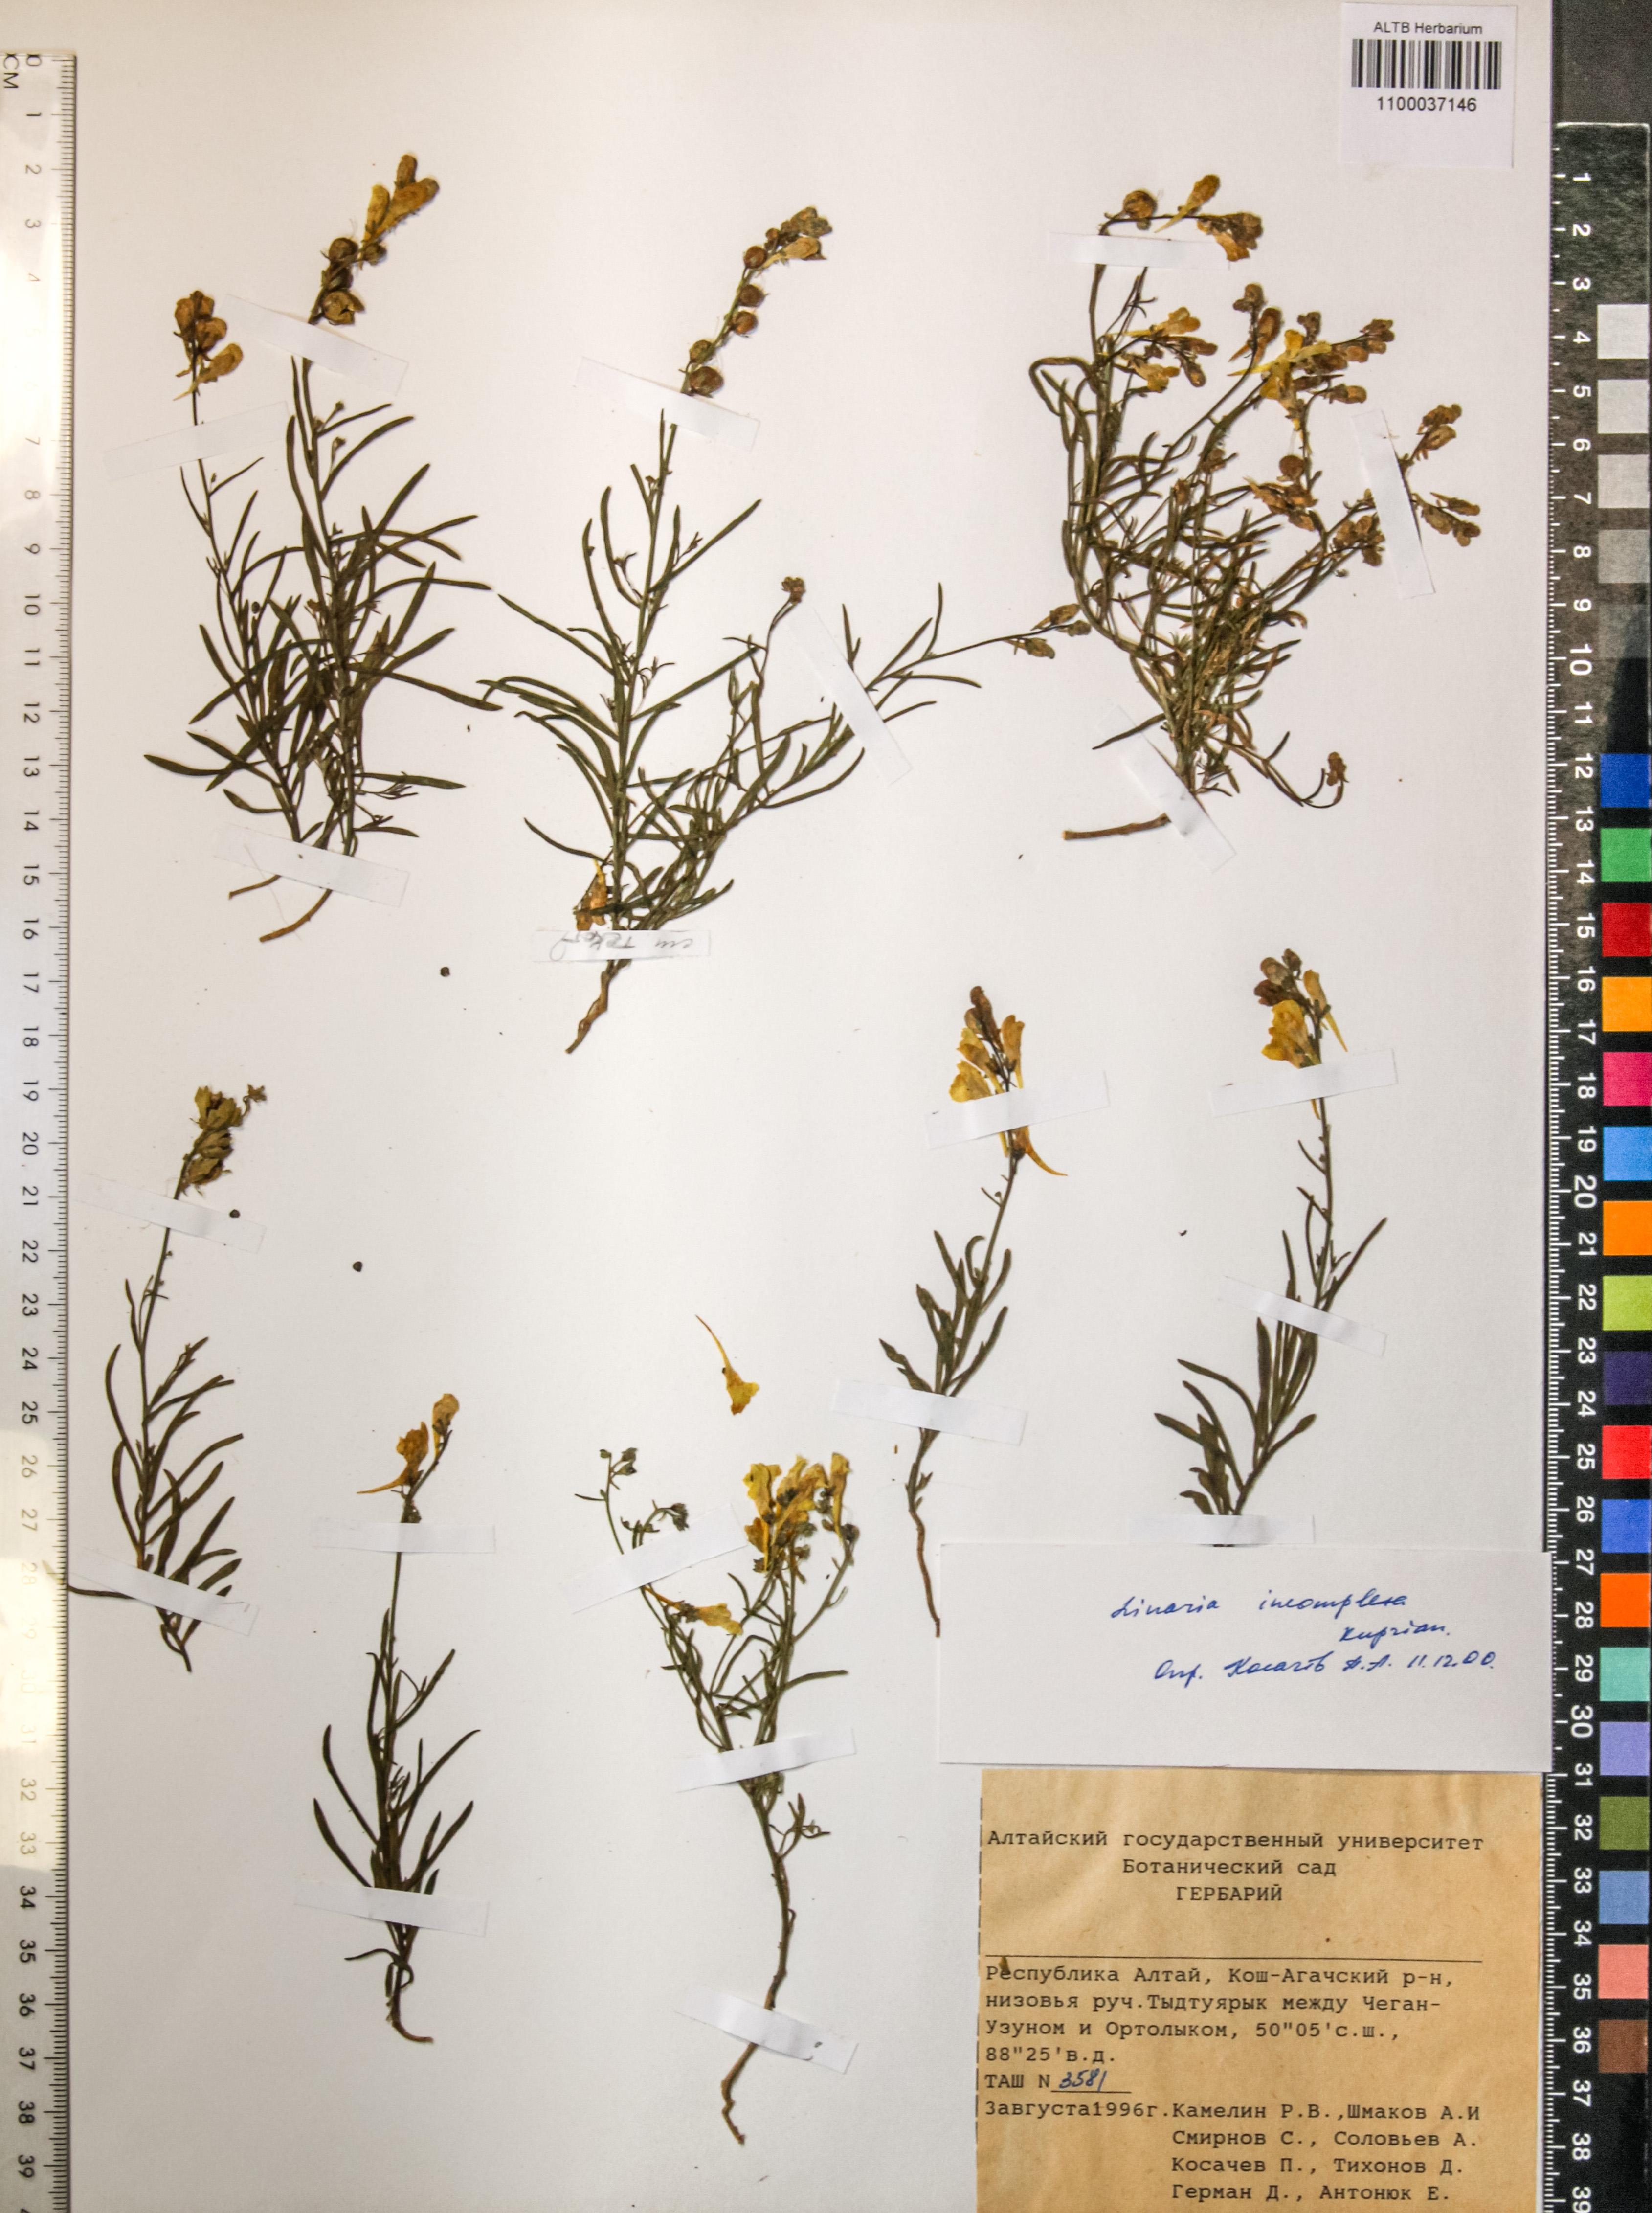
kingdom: Plantae
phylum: Tracheophyta
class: Magnoliopsida
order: Lamiales
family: Plantaginaceae
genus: Linaria
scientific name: Linaria incompleta
